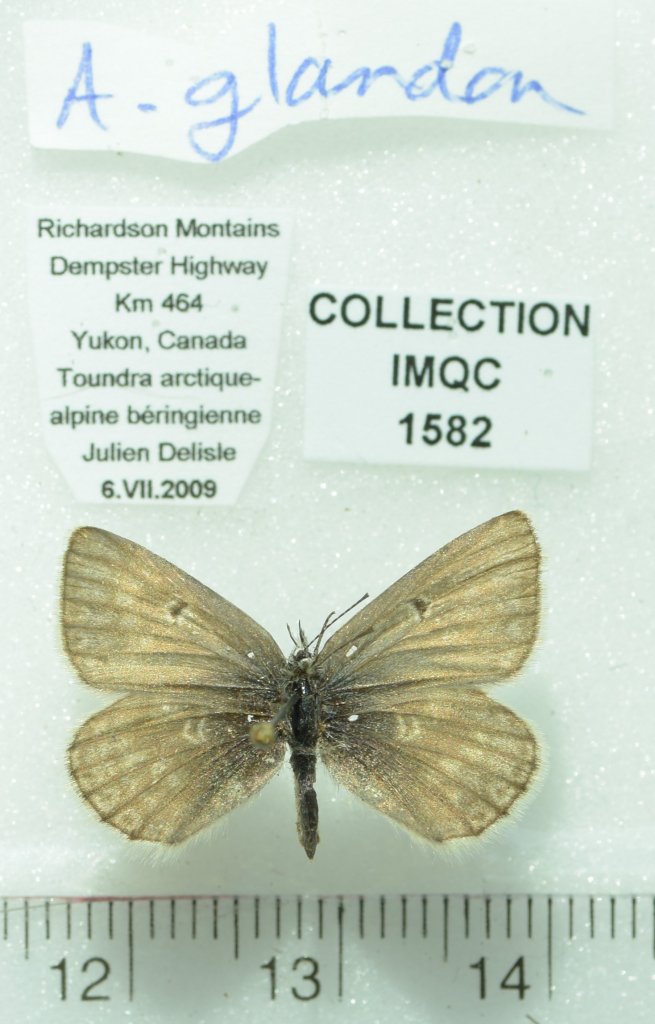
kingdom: Animalia
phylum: Arthropoda
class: Insecta
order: Lepidoptera
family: Lycaenidae
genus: Agriades
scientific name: Agriades glandon
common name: Arctic Blue
